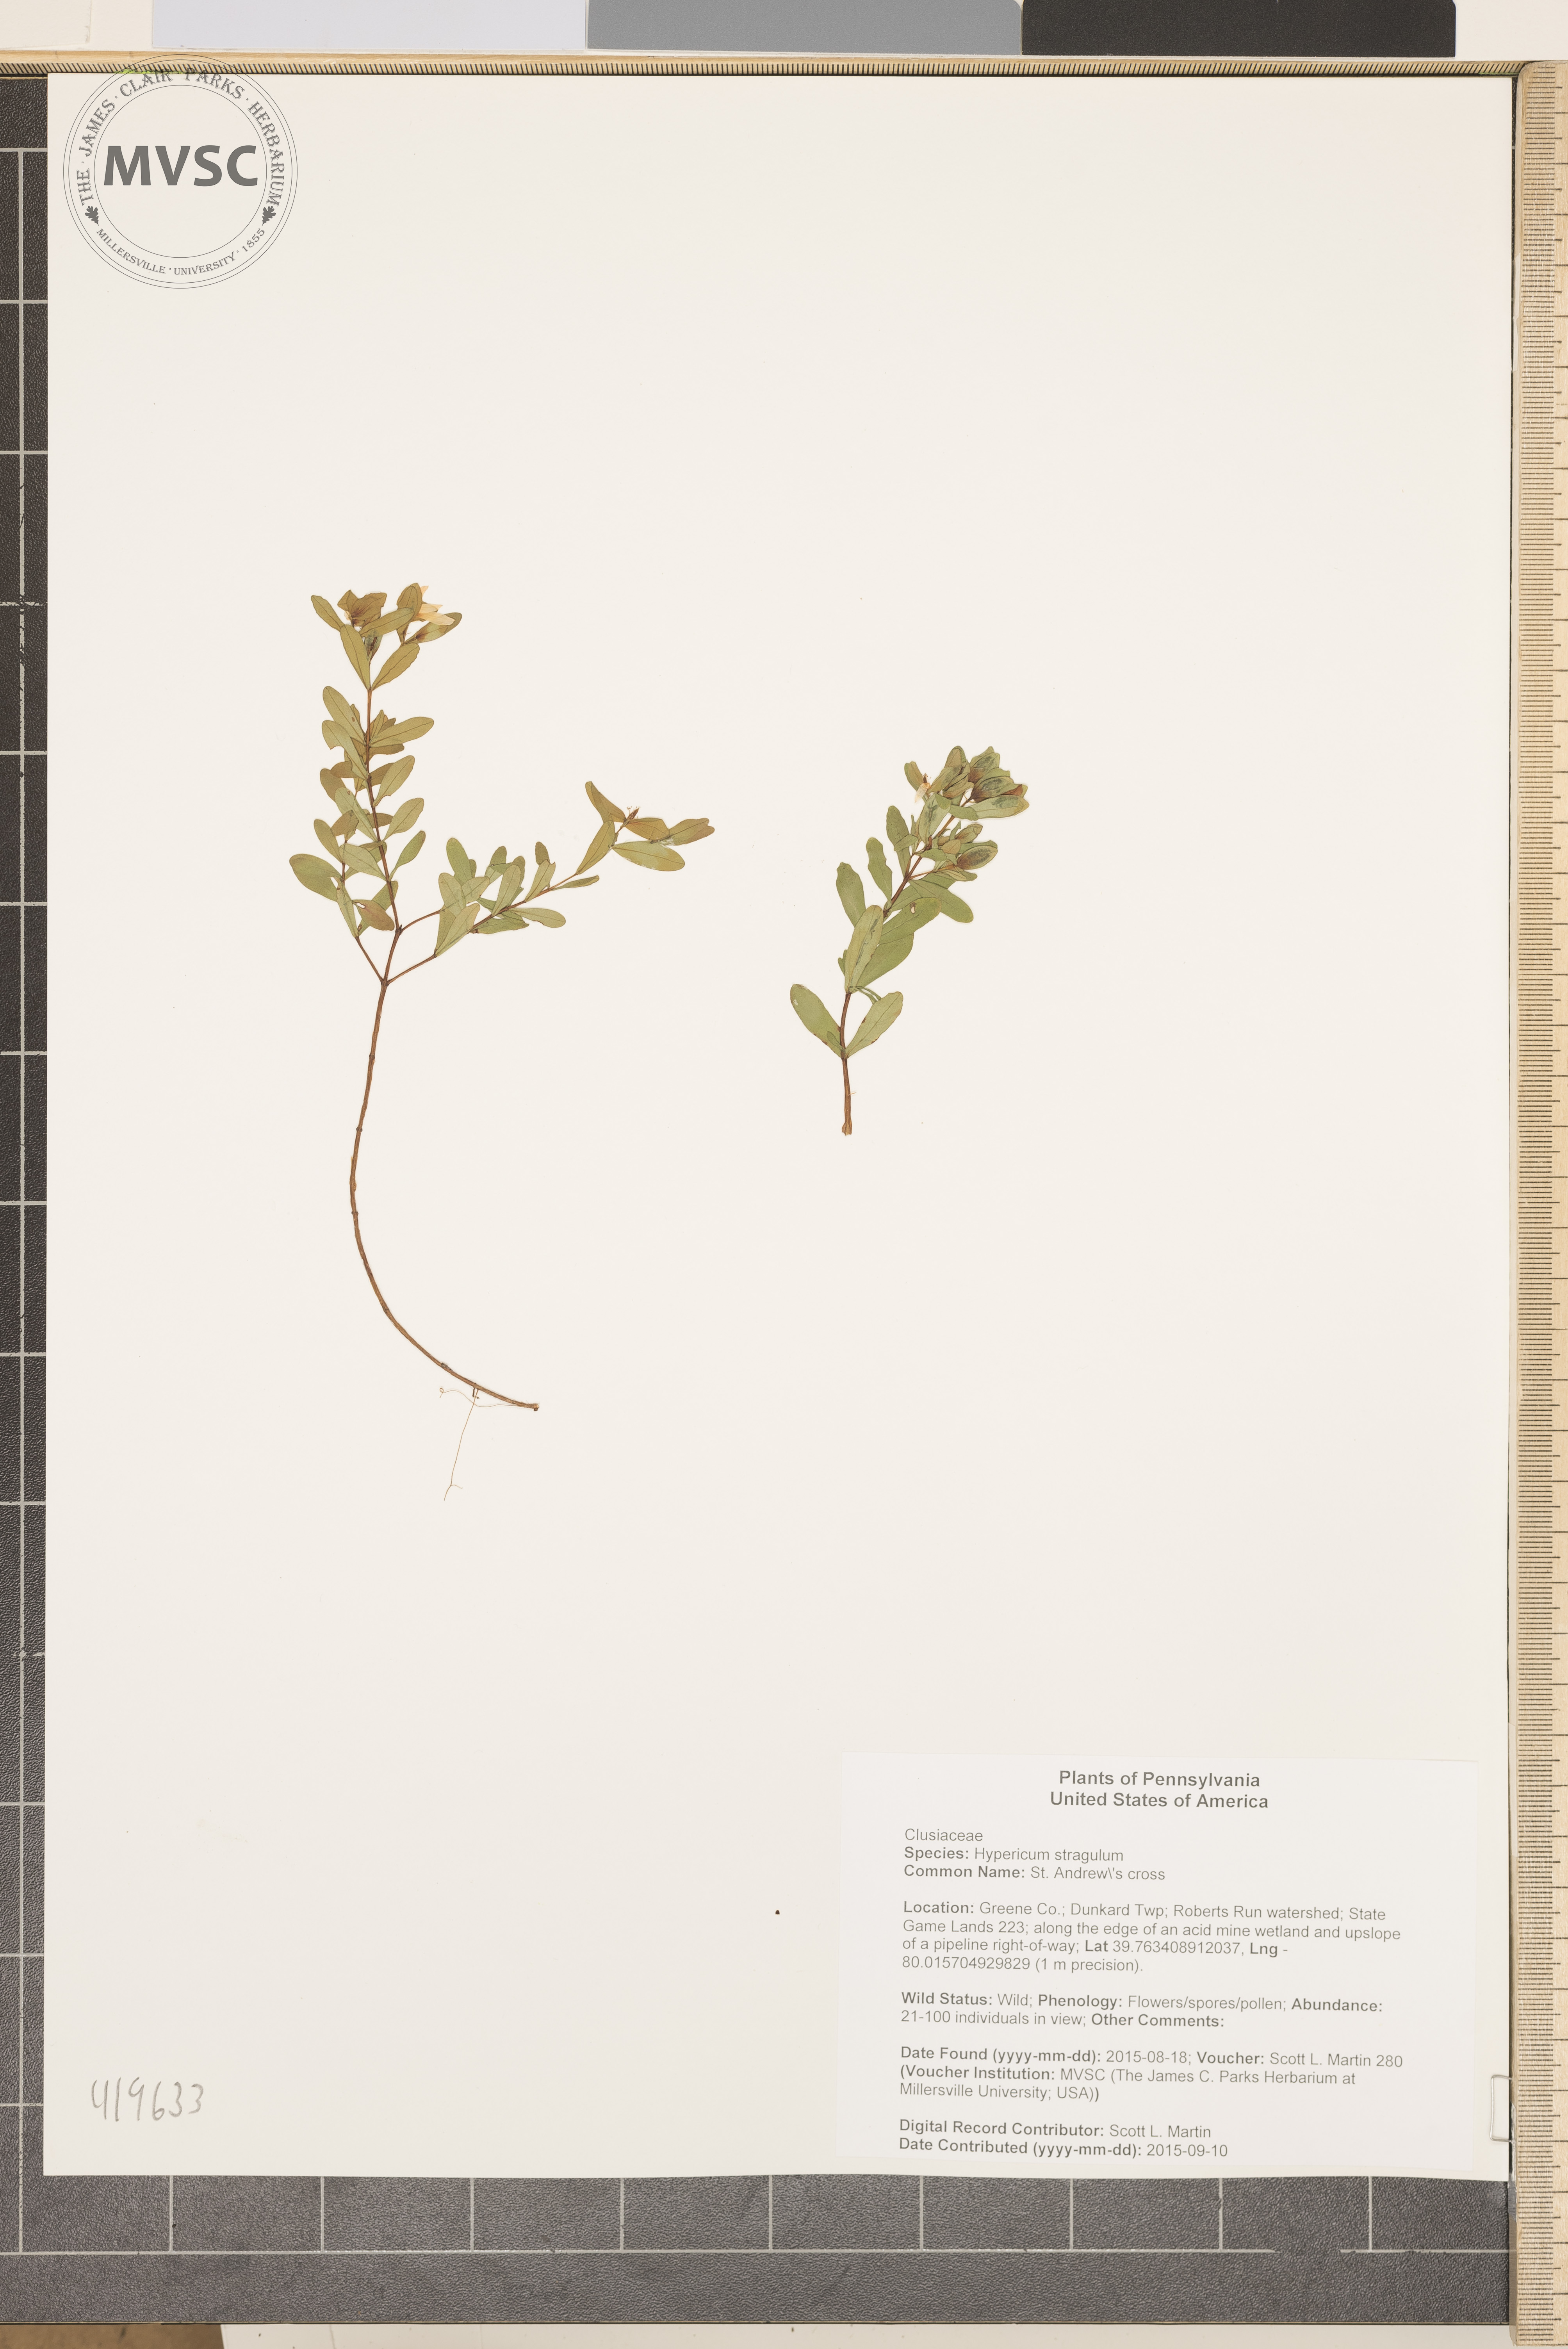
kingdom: Plantae
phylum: Tracheophyta
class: Magnoliopsida
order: Malpighiales
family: Hypericaceae
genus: Hypericum
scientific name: Hypericum hypericoides
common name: St. Andrew's cross
